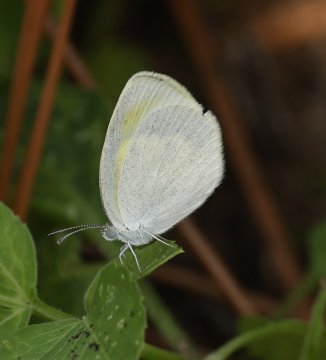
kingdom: Animalia
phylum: Arthropoda
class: Insecta
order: Lepidoptera
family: Pieridae
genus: Eurema
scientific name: Eurema daira
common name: Barred Yellow
